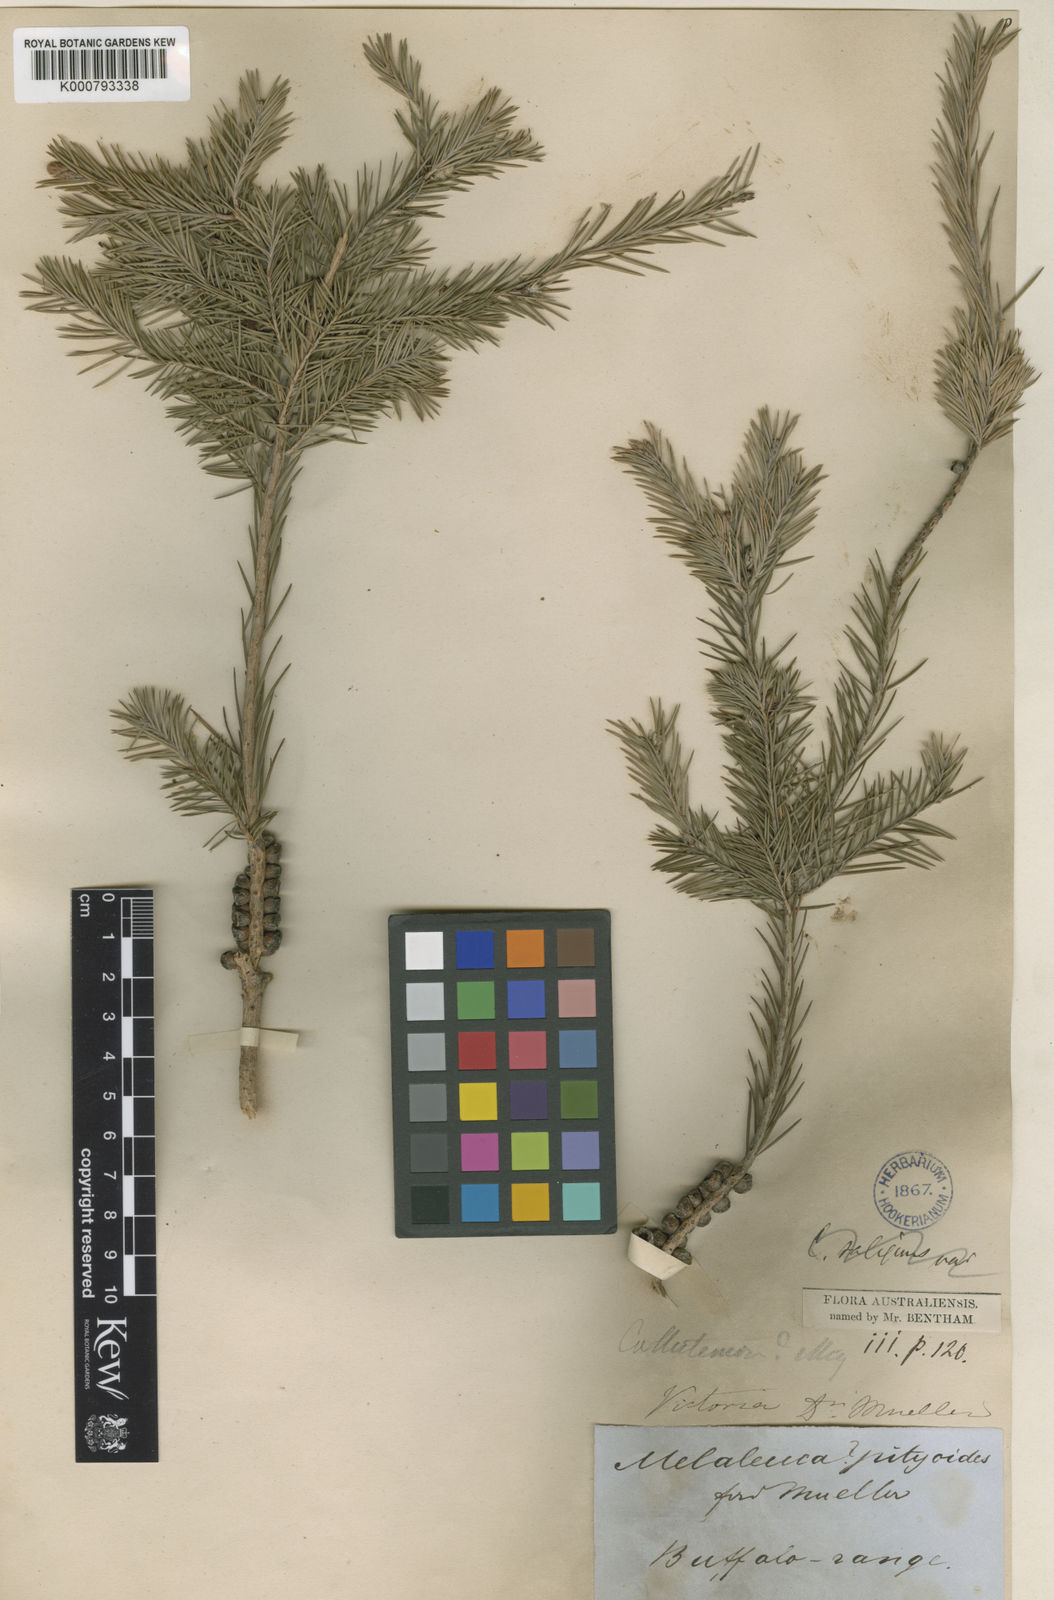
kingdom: Plantae
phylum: Tracheophyta
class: Magnoliopsida
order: Myrtales
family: Myrtaceae
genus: Callistemon
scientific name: Callistemon pityoides
